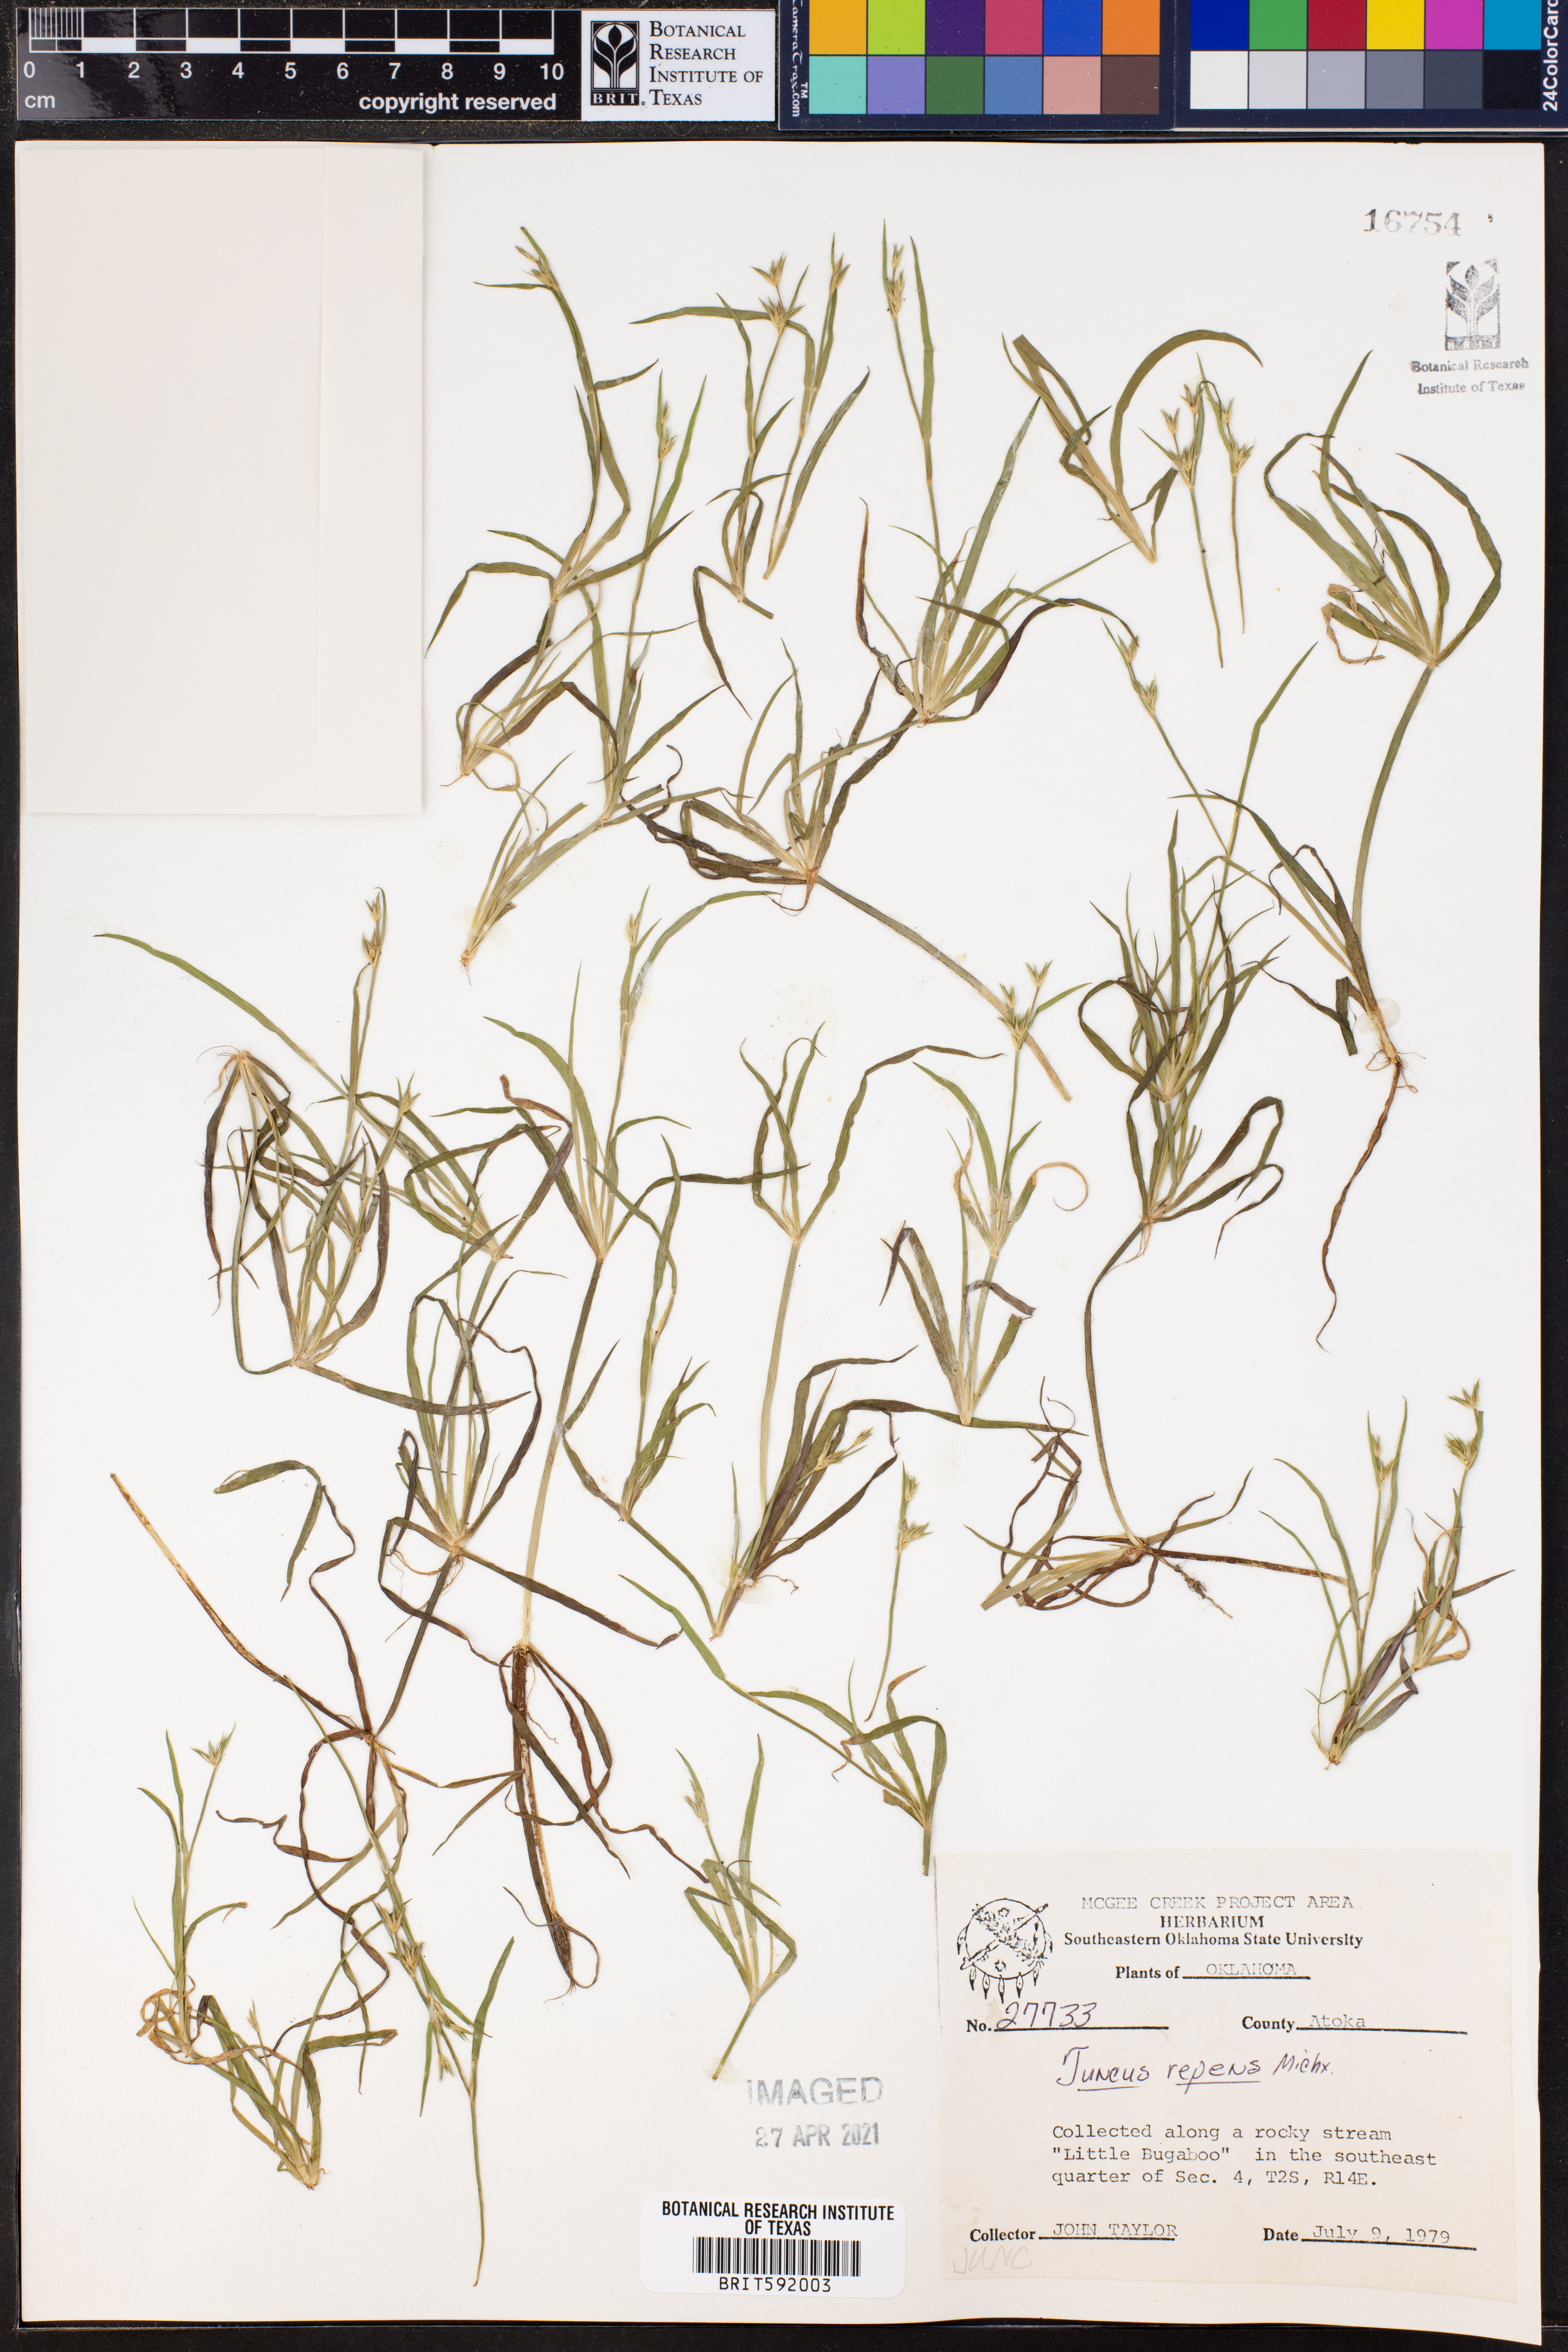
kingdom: Plantae
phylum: Tracheophyta
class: Liliopsida
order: Poales
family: Juncaceae
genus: Juncus
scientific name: Juncus repens
